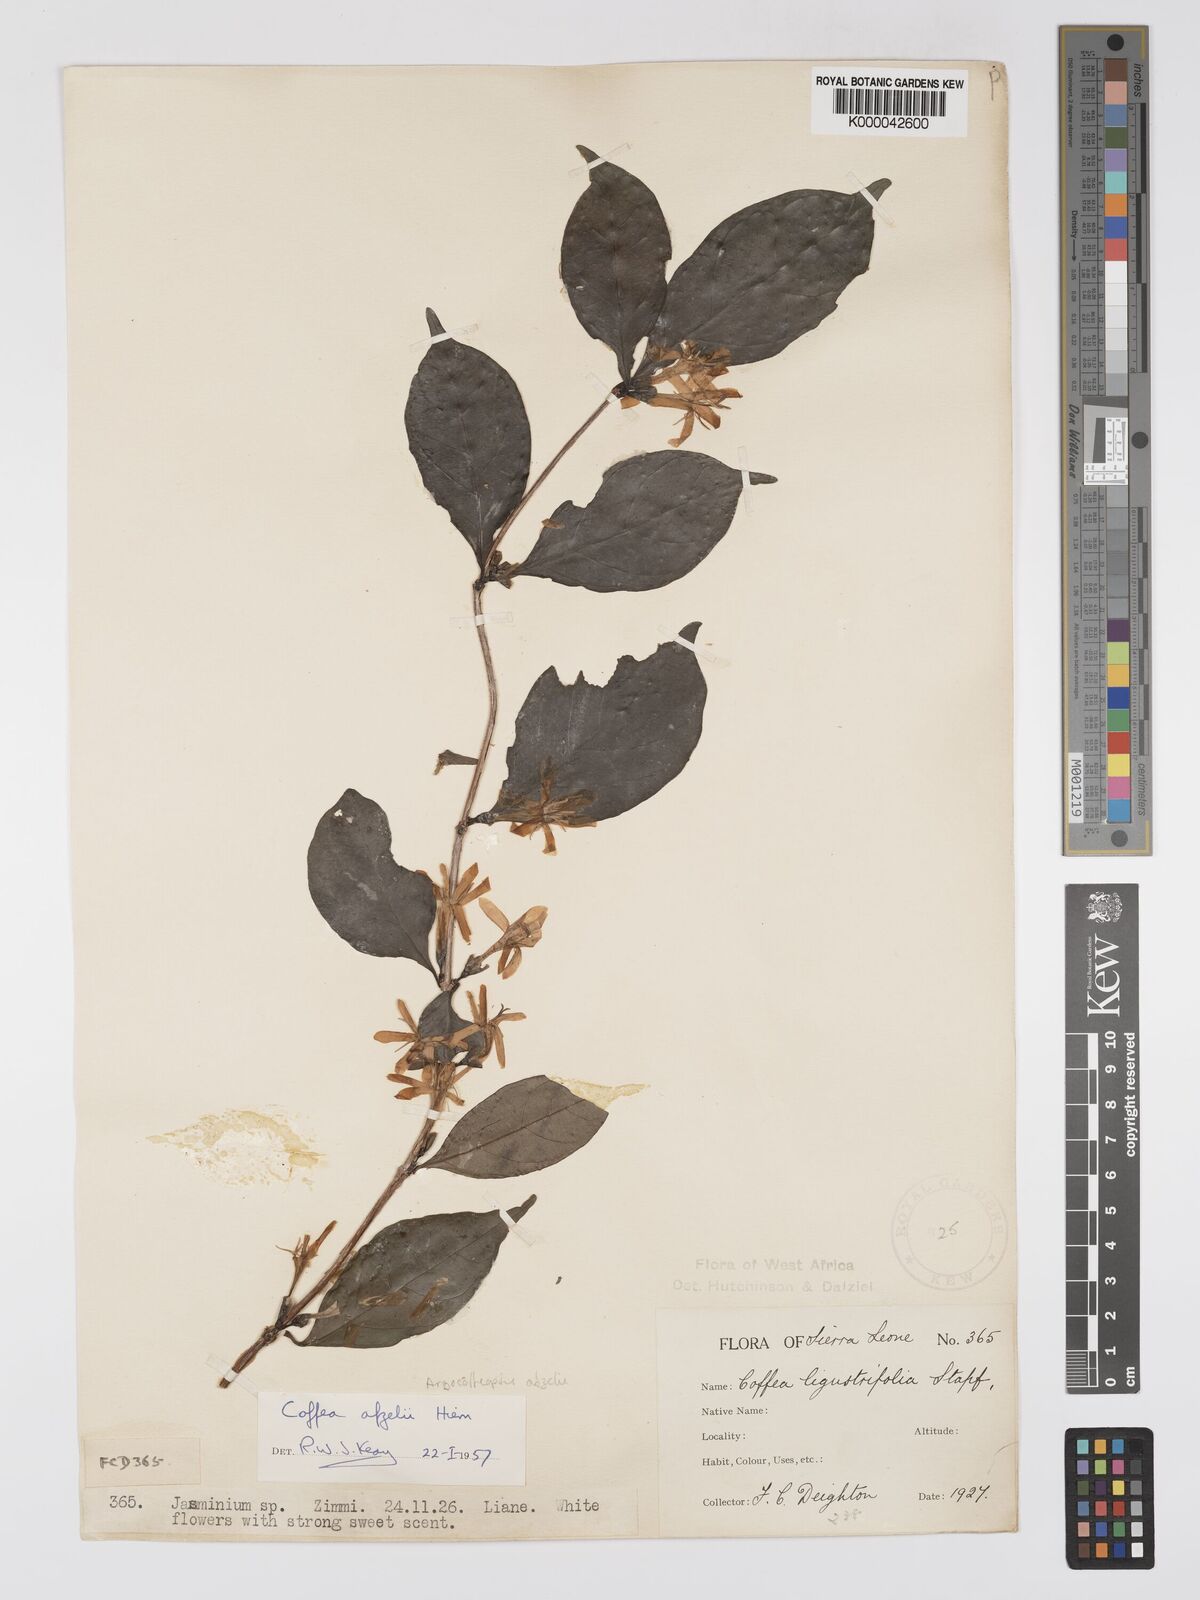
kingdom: Plantae
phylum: Tracheophyta
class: Magnoliopsida
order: Gentianales
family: Rubiaceae
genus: Argocoffeopsis
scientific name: Argocoffeopsis afzelii
